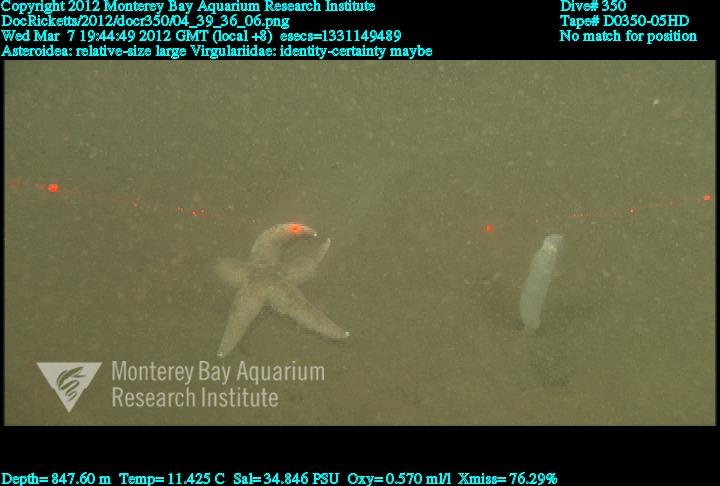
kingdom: Animalia
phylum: Cnidaria
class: Anthozoa
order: Scleralcyonacea
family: Virgulariidae
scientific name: Virgulariidae
